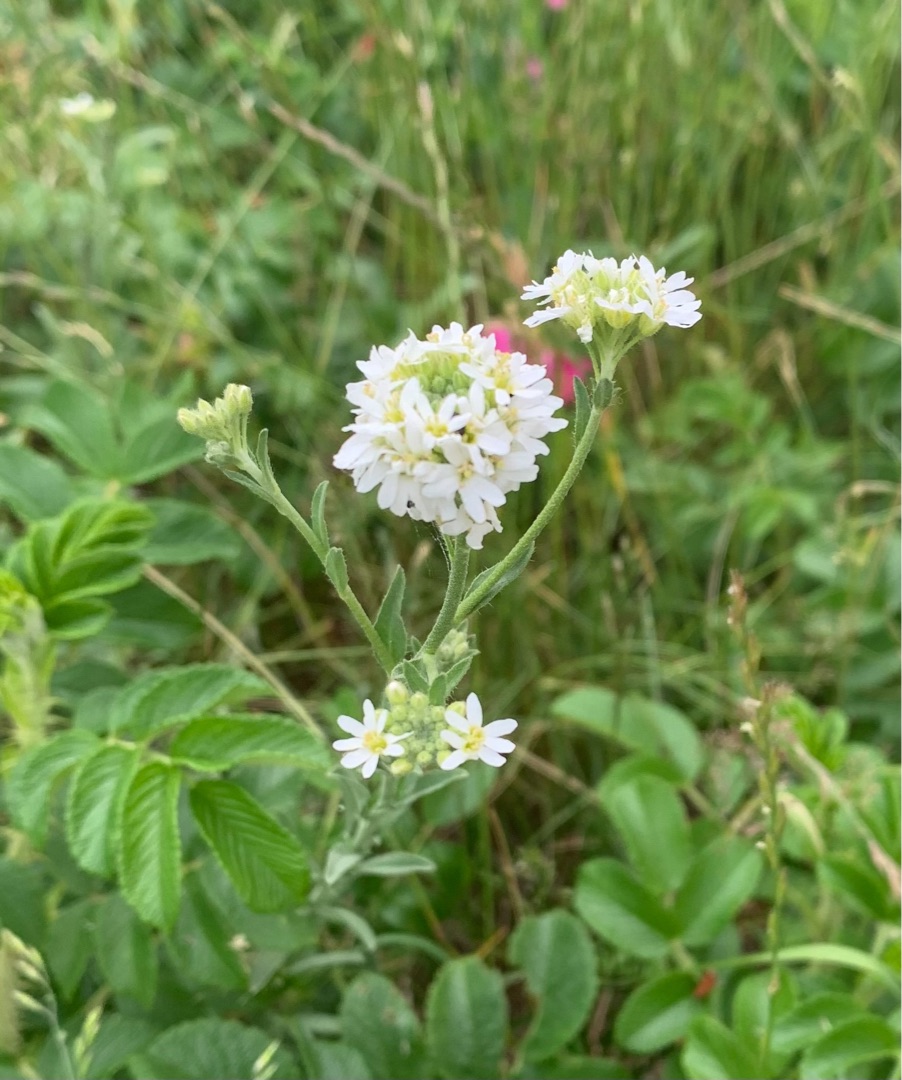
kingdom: Plantae
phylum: Tracheophyta
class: Magnoliopsida
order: Brassicales
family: Brassicaceae
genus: Berteroa
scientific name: Berteroa incana
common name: Kløvplade
